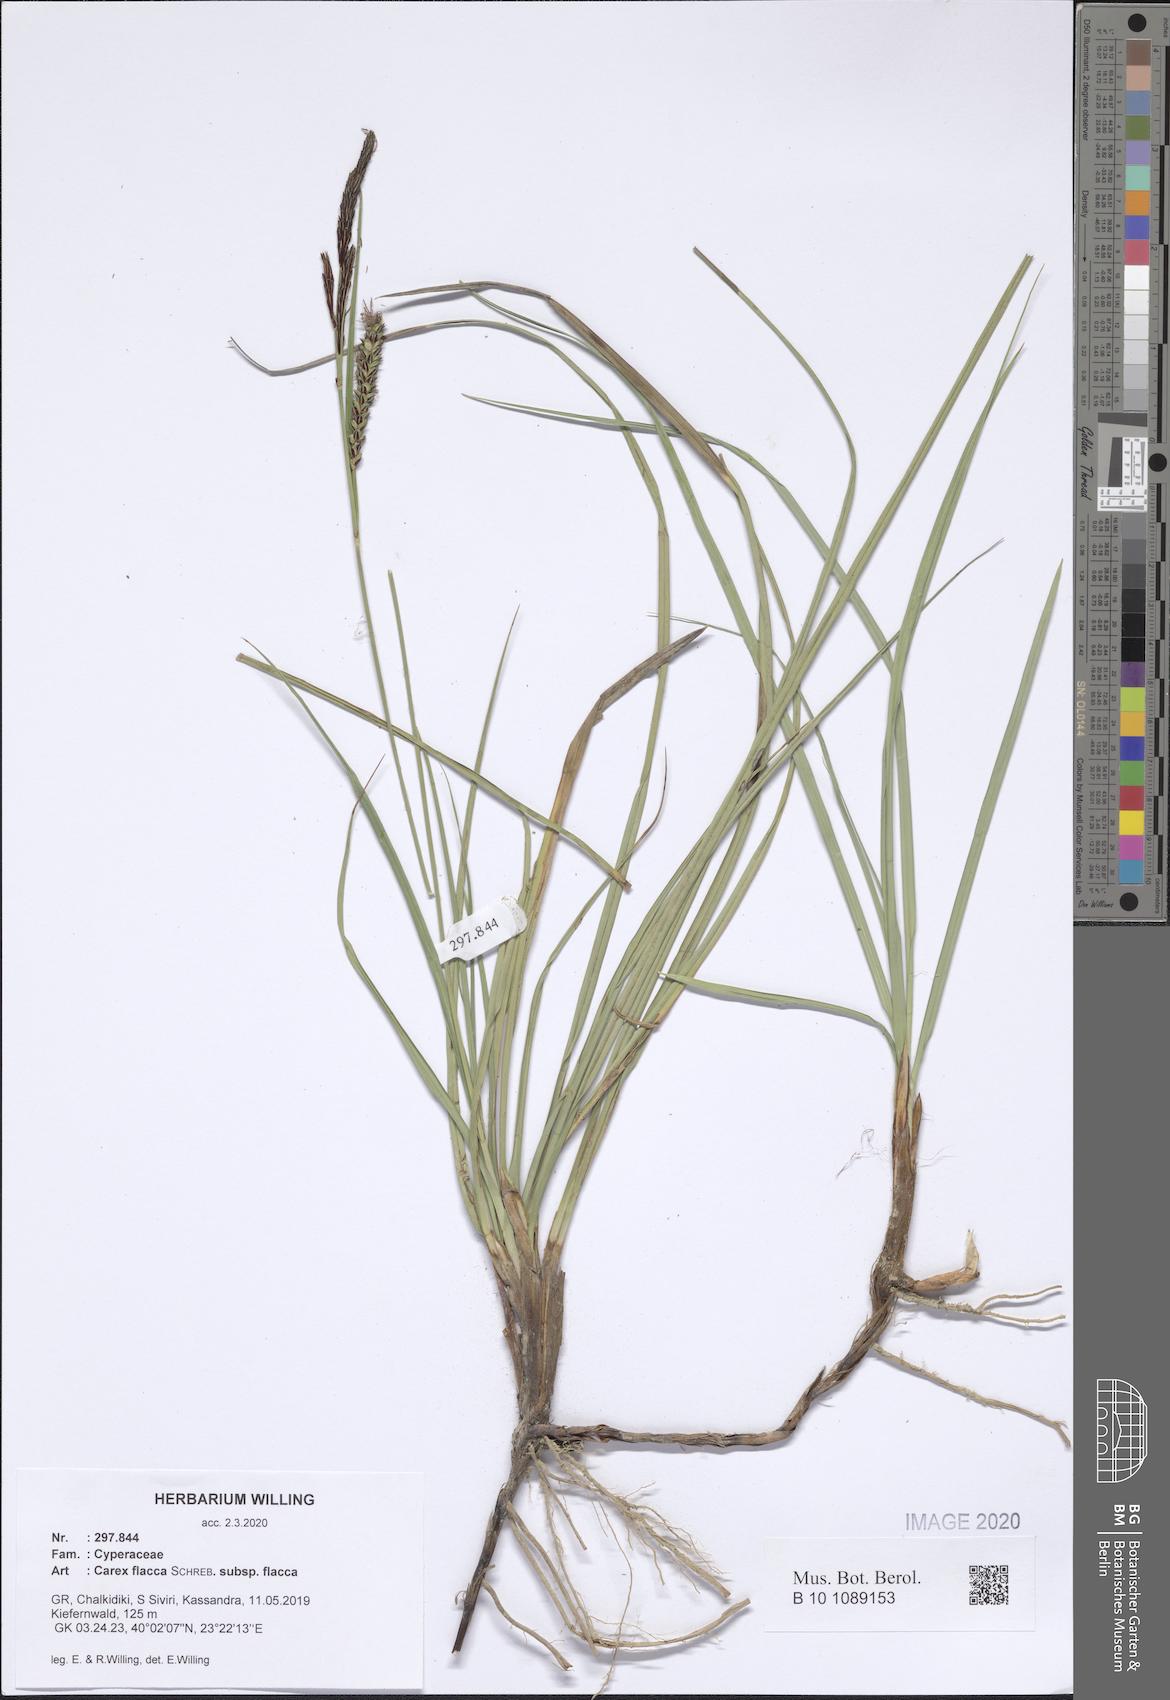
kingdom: Plantae
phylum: Tracheophyta
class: Liliopsida
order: Poales
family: Cyperaceae
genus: Carex
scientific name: Carex flacca
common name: Glaucous sedge
